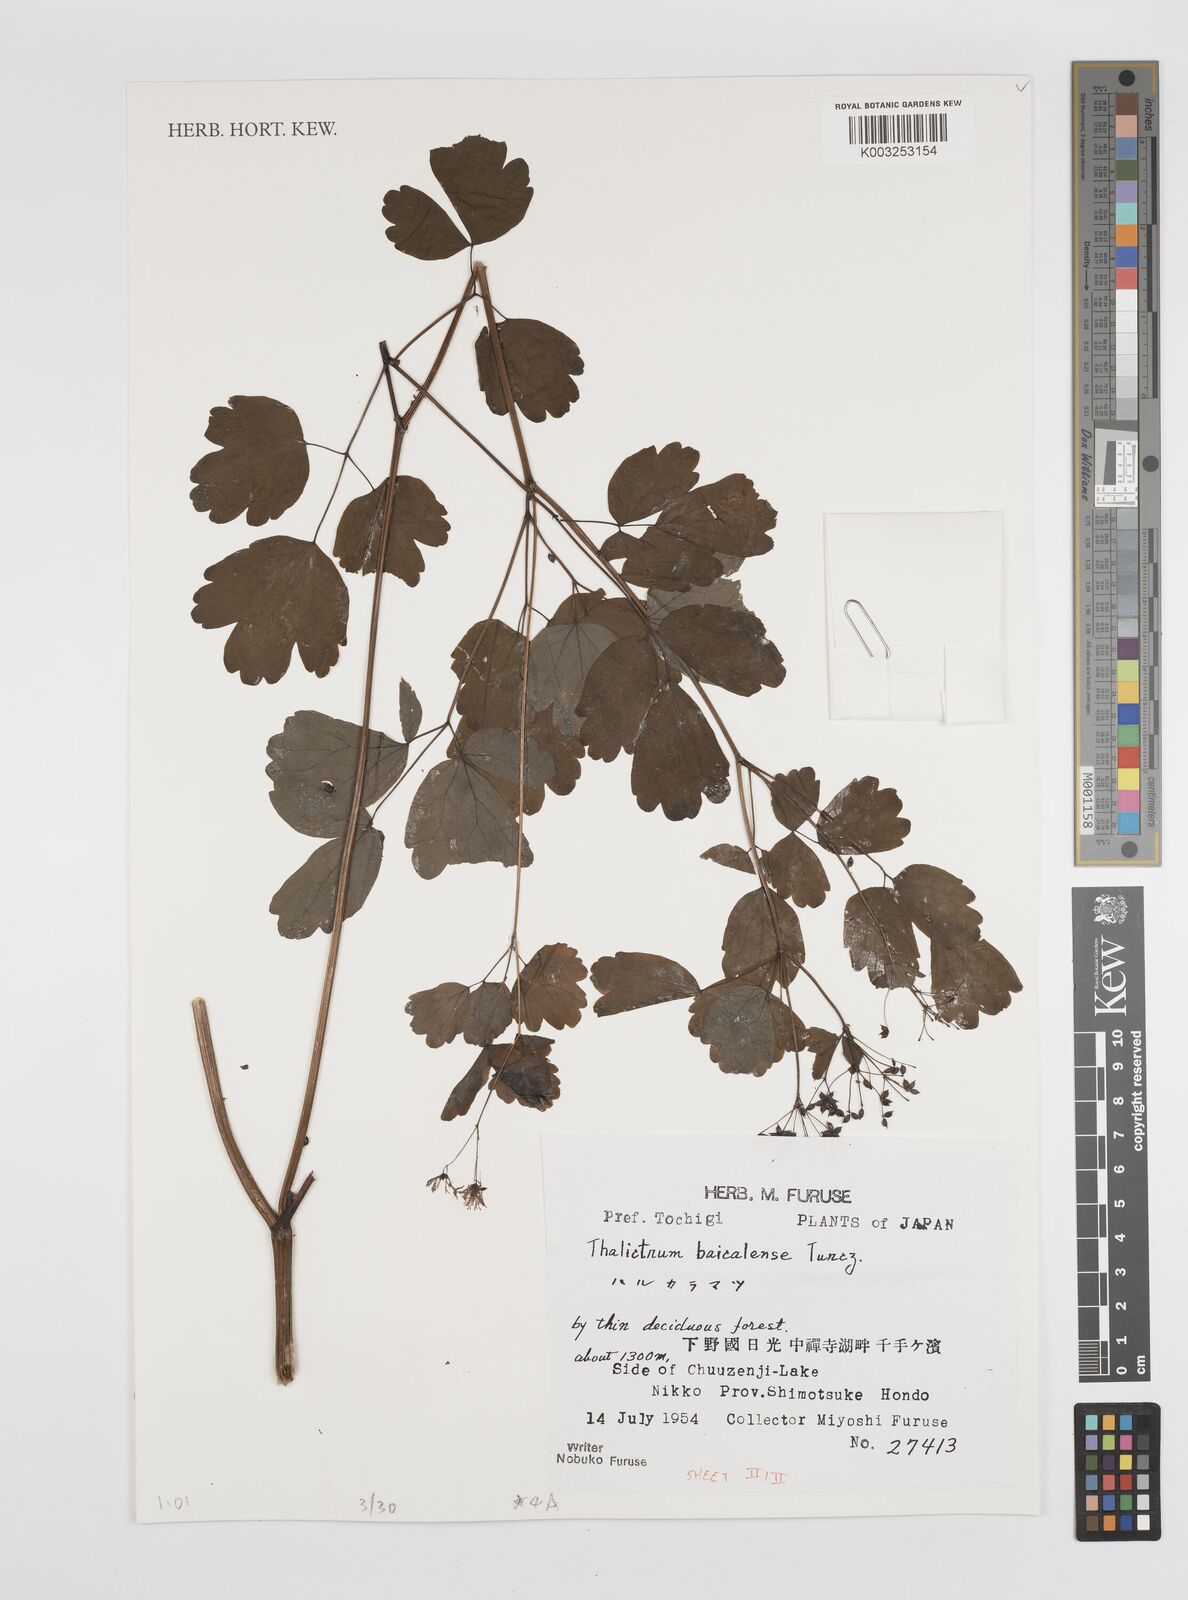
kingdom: Plantae
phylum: Tracheophyta
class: Magnoliopsida
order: Ranunculales
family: Ranunculaceae
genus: Thalictrum
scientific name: Thalictrum baicalense
